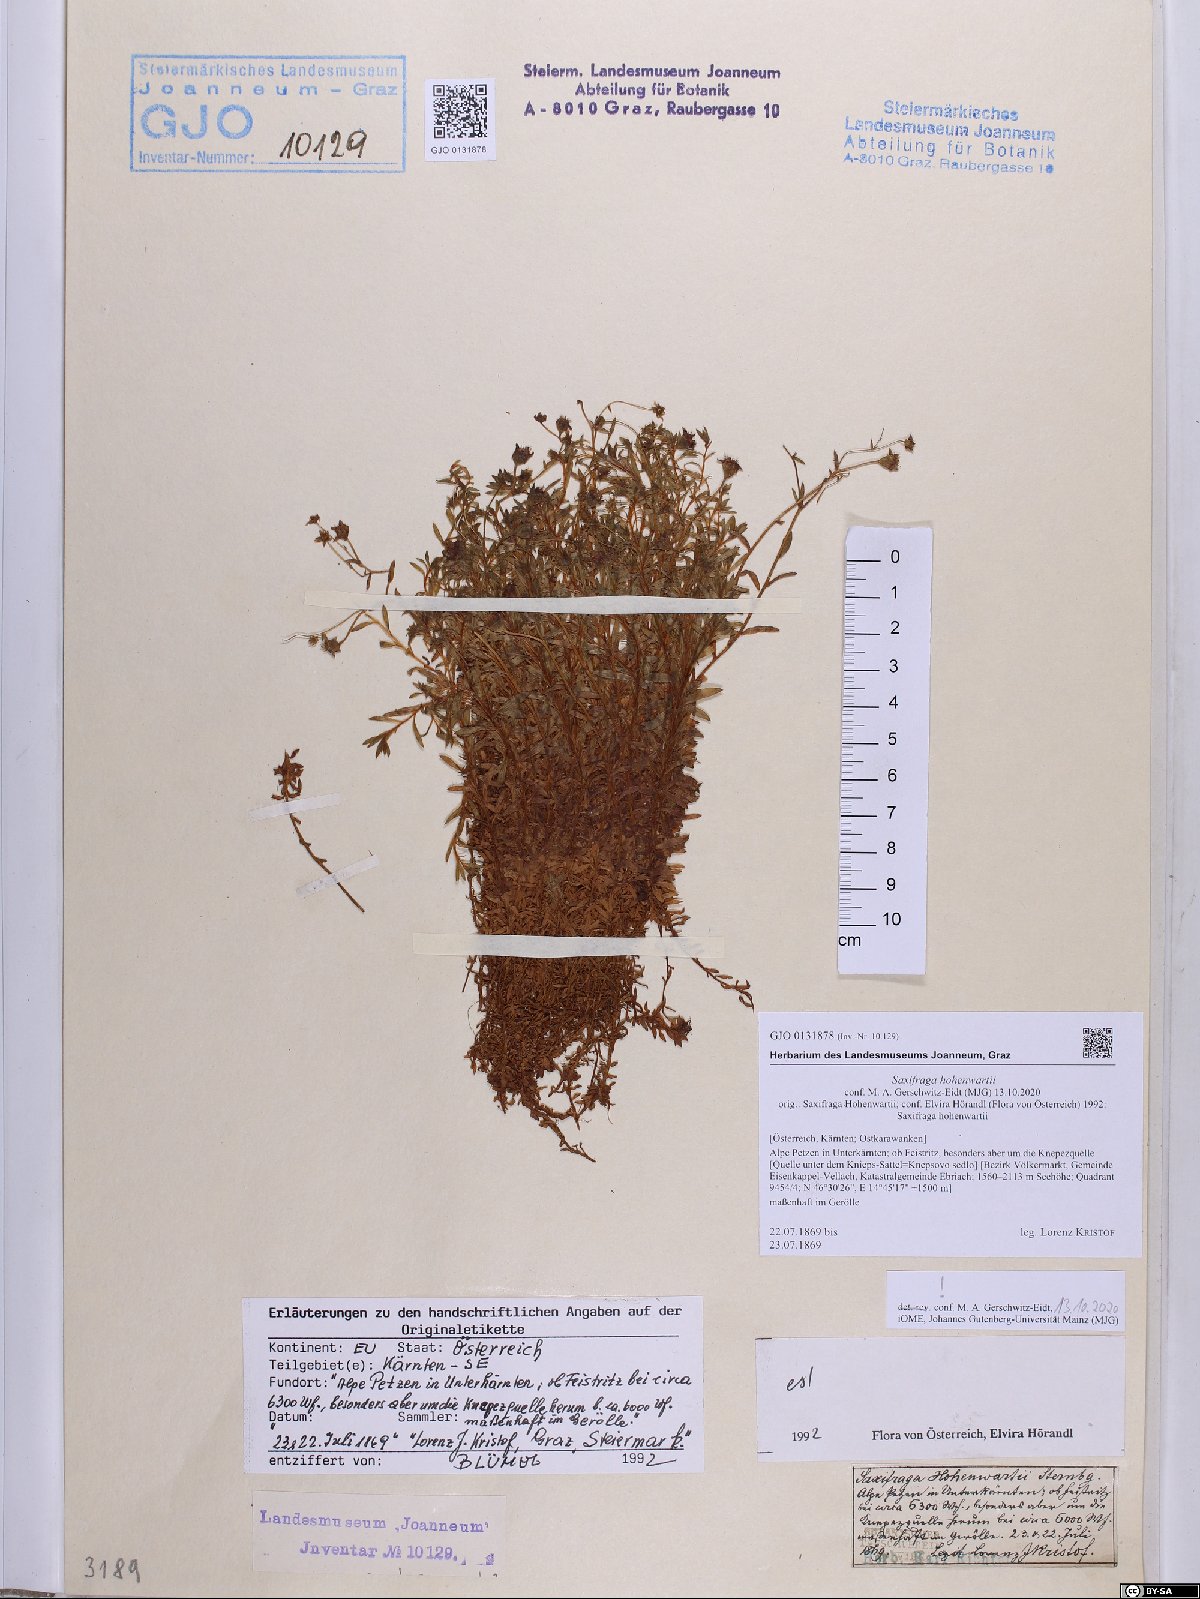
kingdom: Plantae
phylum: Tracheophyta
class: Magnoliopsida
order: Saxifragales
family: Saxifragaceae
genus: Saxifraga
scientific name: Saxifraga hohenwartii
